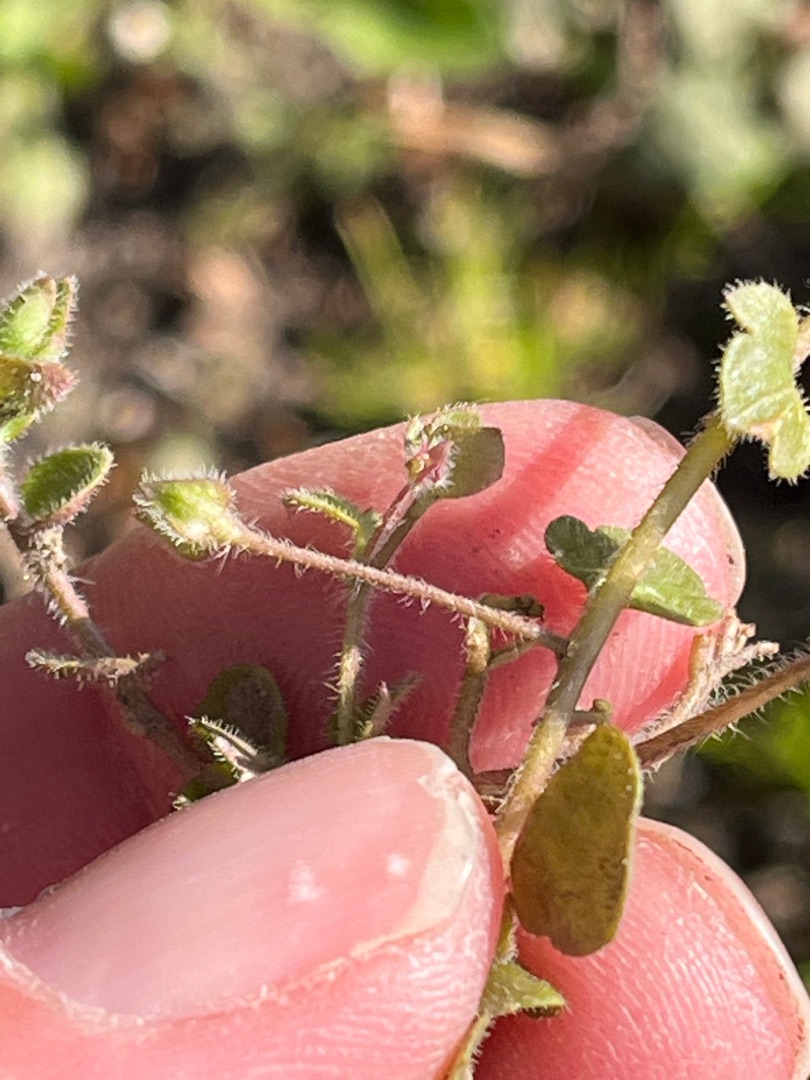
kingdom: Plantae
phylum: Tracheophyta
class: Magnoliopsida
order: Lamiales
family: Plantaginaceae
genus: Veronica
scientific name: Veronica hederifolia
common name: Vedbend-ærenpris
